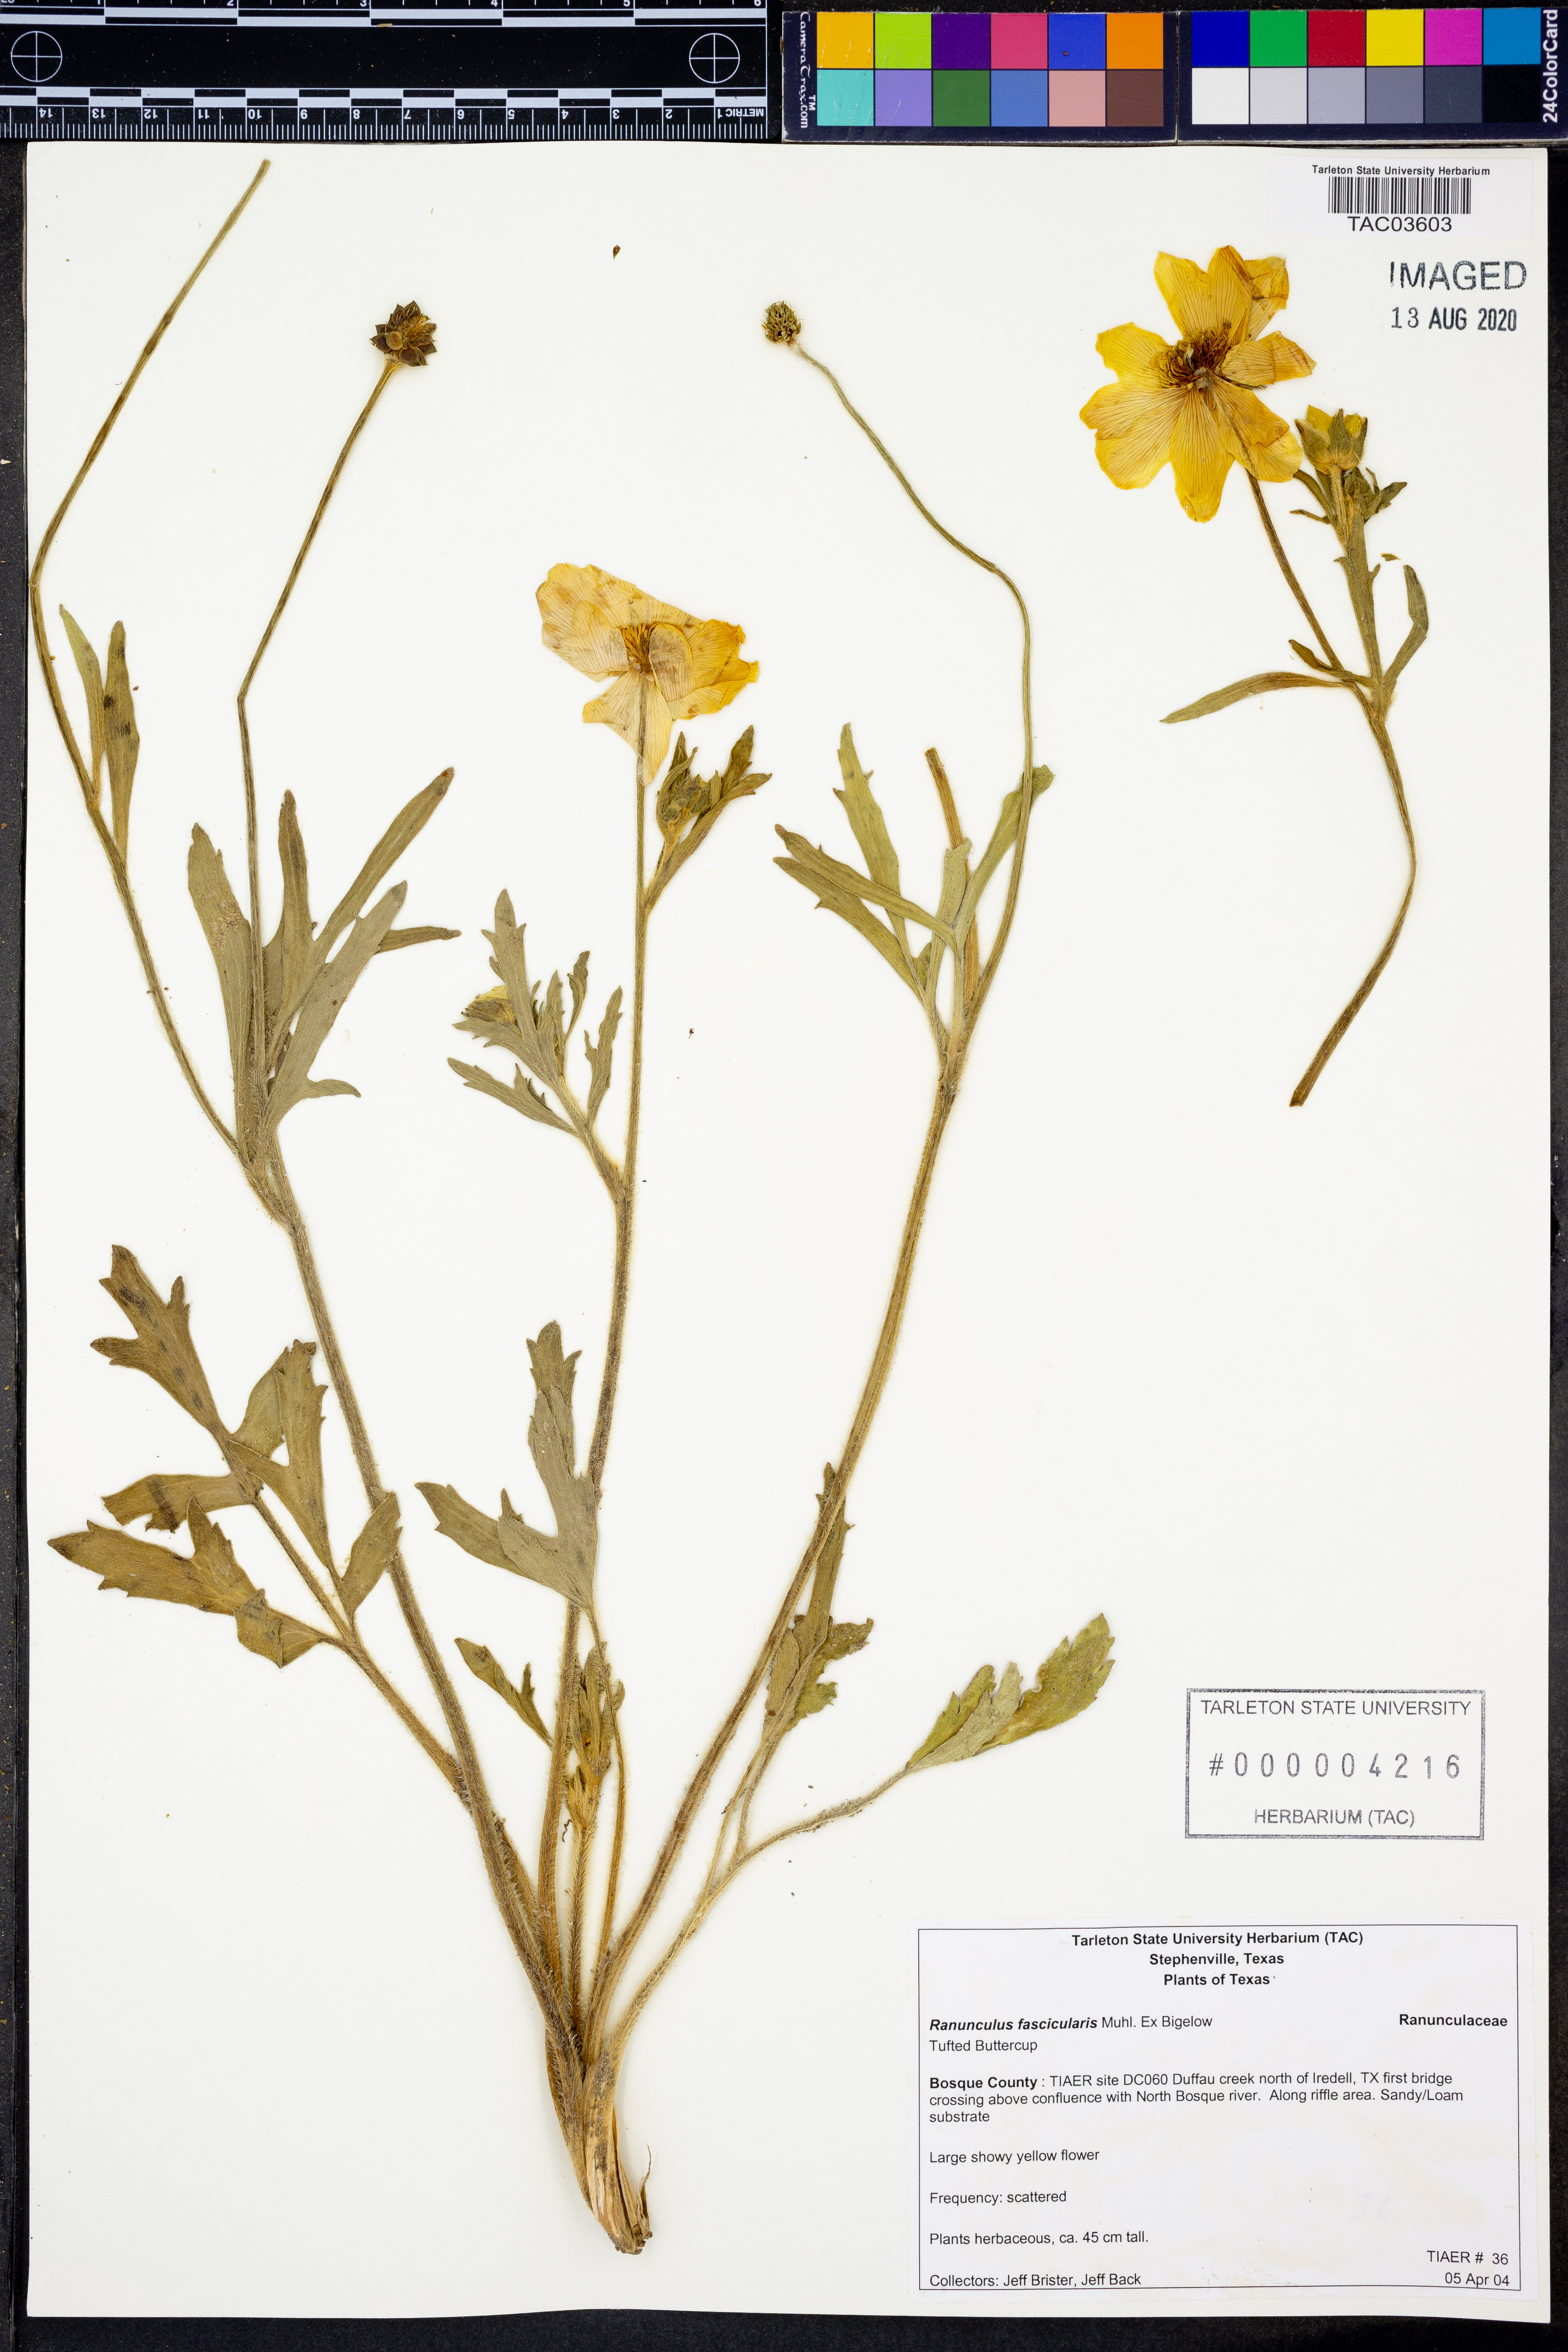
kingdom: Plantae
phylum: Tracheophyta
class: Magnoliopsida
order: Ranunculales
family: Ranunculaceae
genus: Ranunculus
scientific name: Ranunculus fascicularis
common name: Early buttercup
